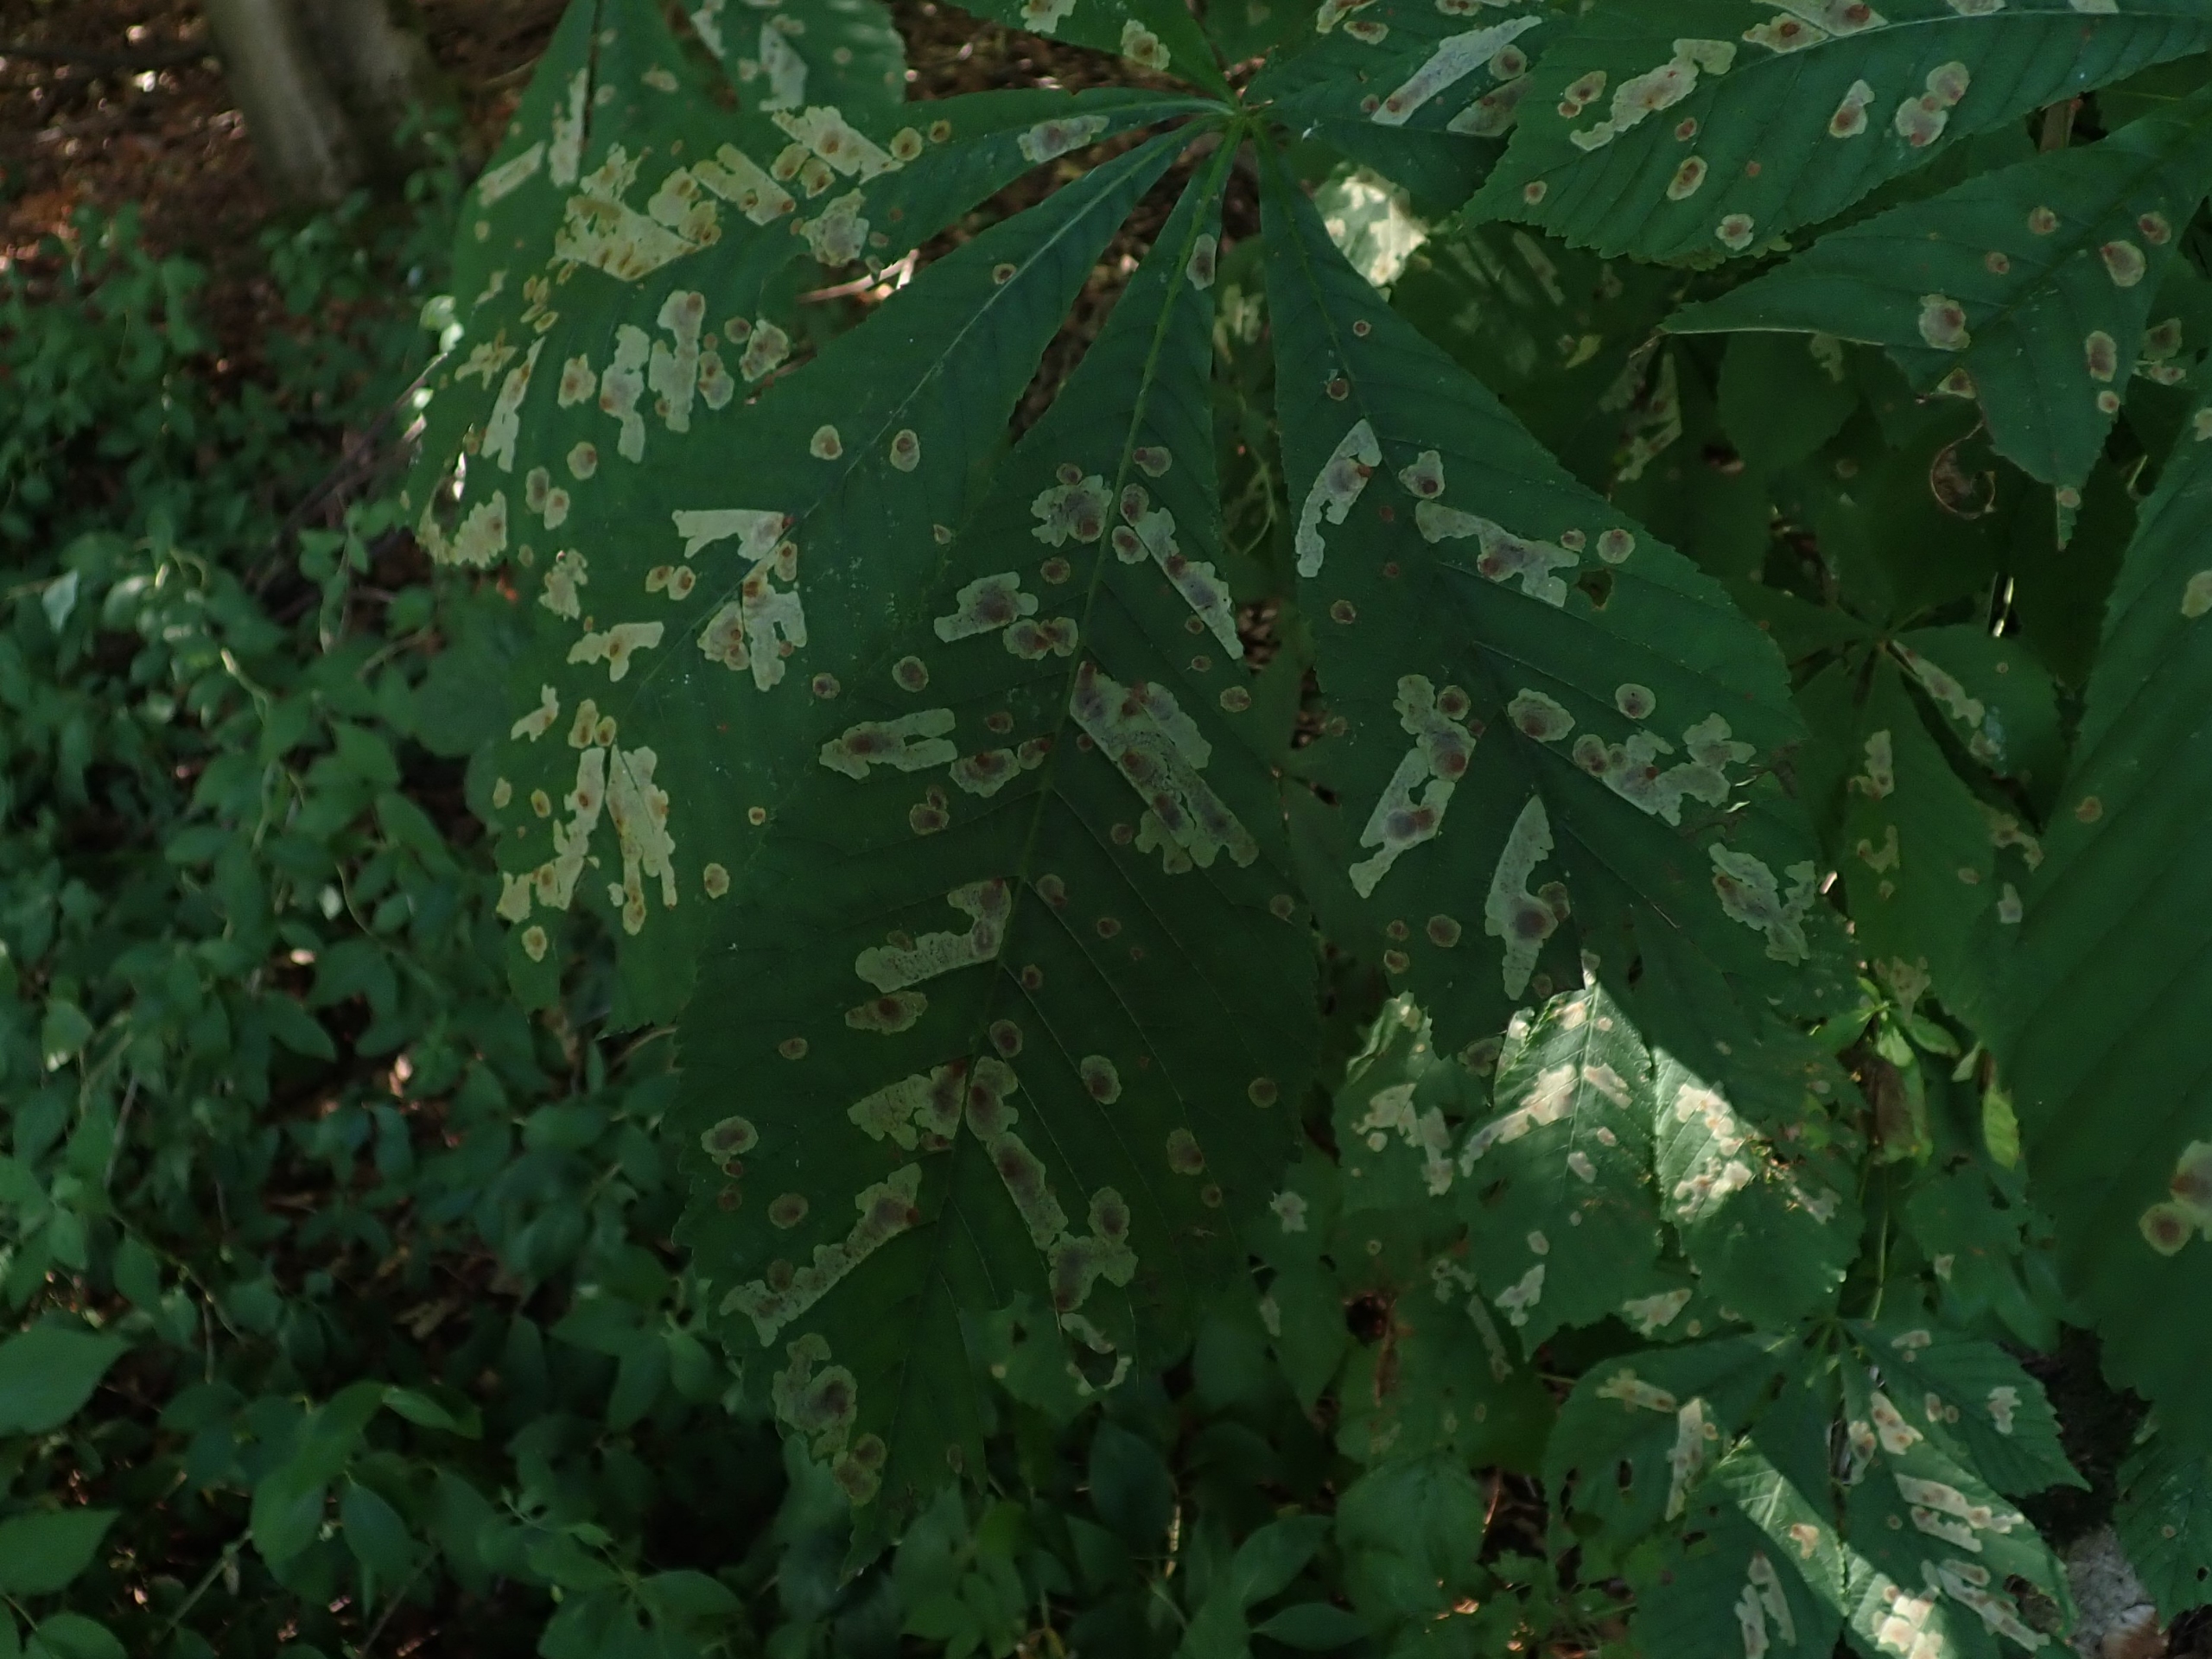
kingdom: Animalia
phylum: Arthropoda
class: Insecta
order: Lepidoptera
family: Gracillariidae
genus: Cameraria
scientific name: Cameraria ohridella
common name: Kastanieminérmøl
